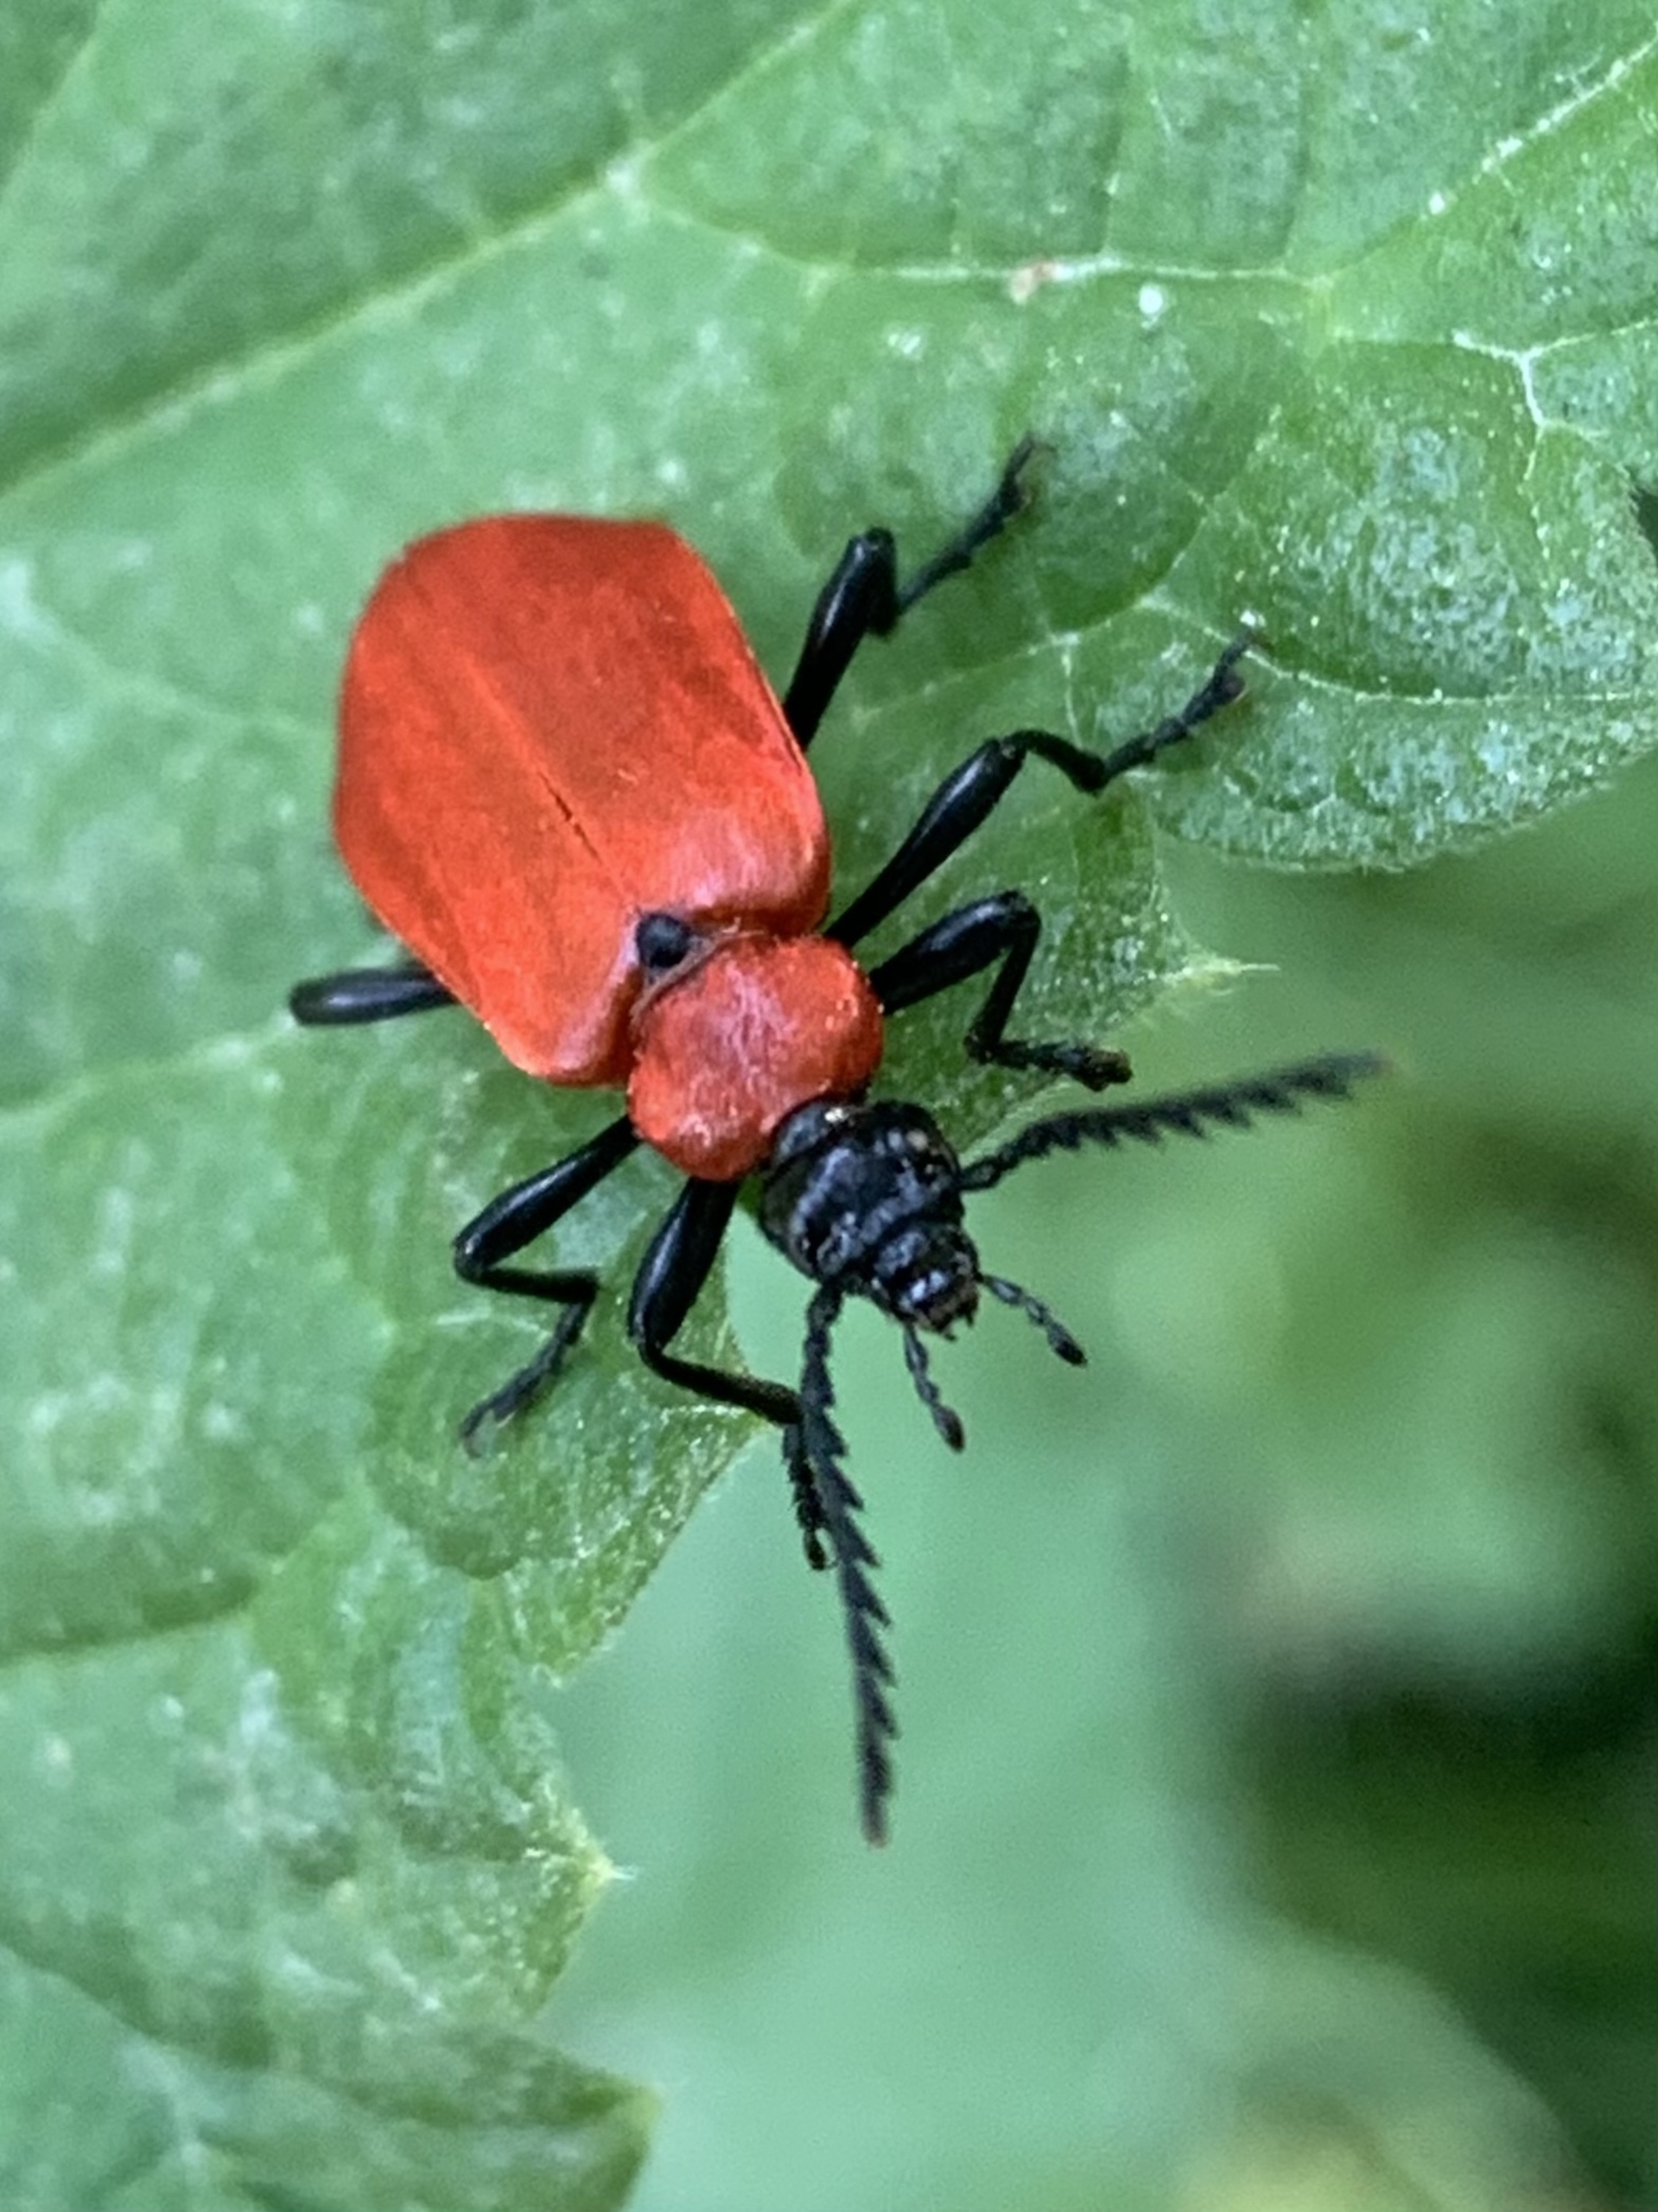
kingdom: Animalia
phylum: Arthropoda
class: Insecta
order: Coleoptera
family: Pyrochroidae
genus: Pyrochroa
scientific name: Pyrochroa coccinea
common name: Sorthovedet kardinalbille
